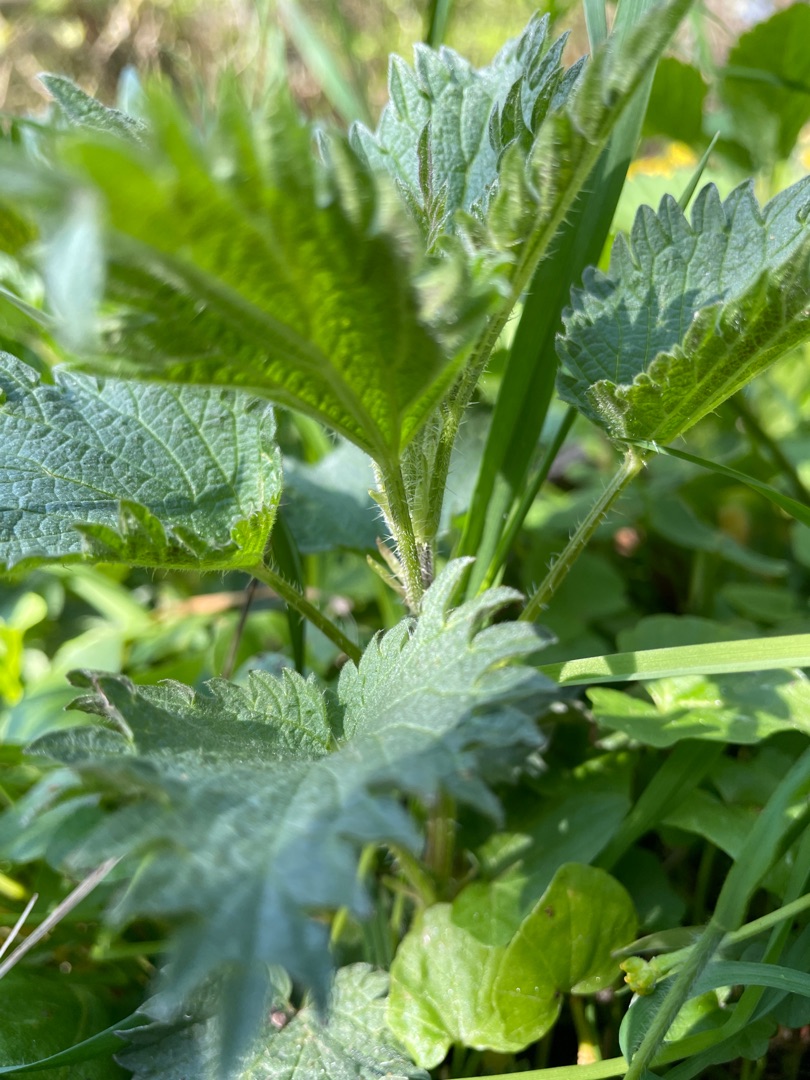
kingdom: Plantae
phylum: Tracheophyta
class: Magnoliopsida
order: Rosales
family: Urticaceae
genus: Urtica
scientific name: Urtica dioica
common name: Stor nælde
